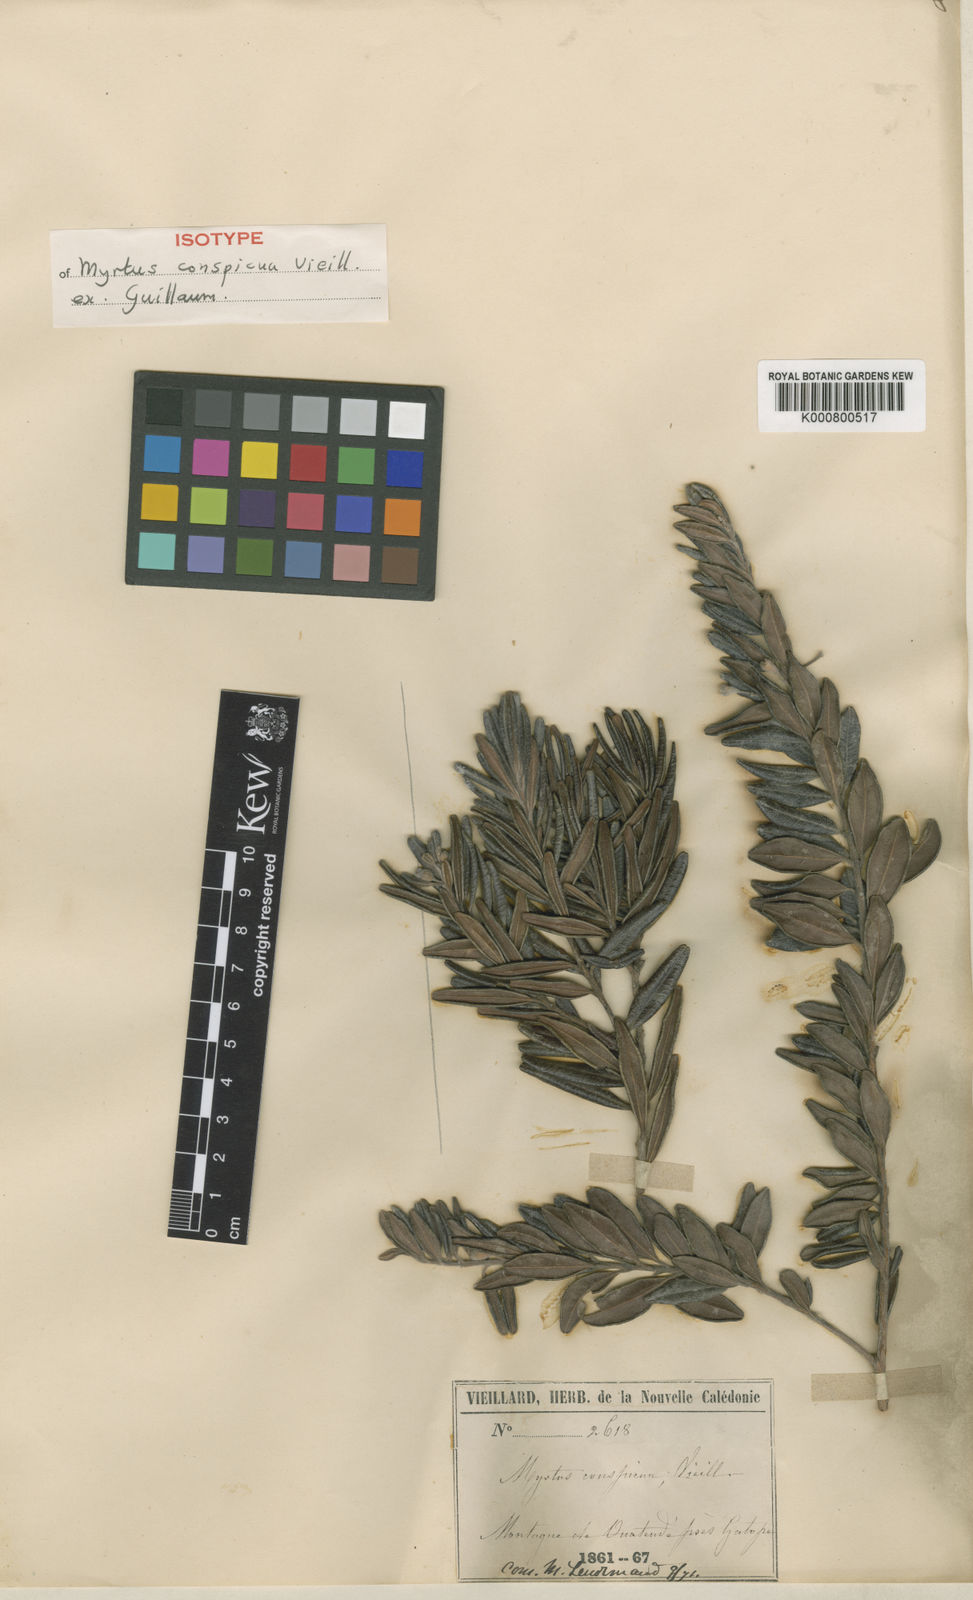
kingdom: Plantae
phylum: Tracheophyta
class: Magnoliopsida
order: Myrtales
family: Myrtaceae
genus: Gossia
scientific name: Gossia conspicua
